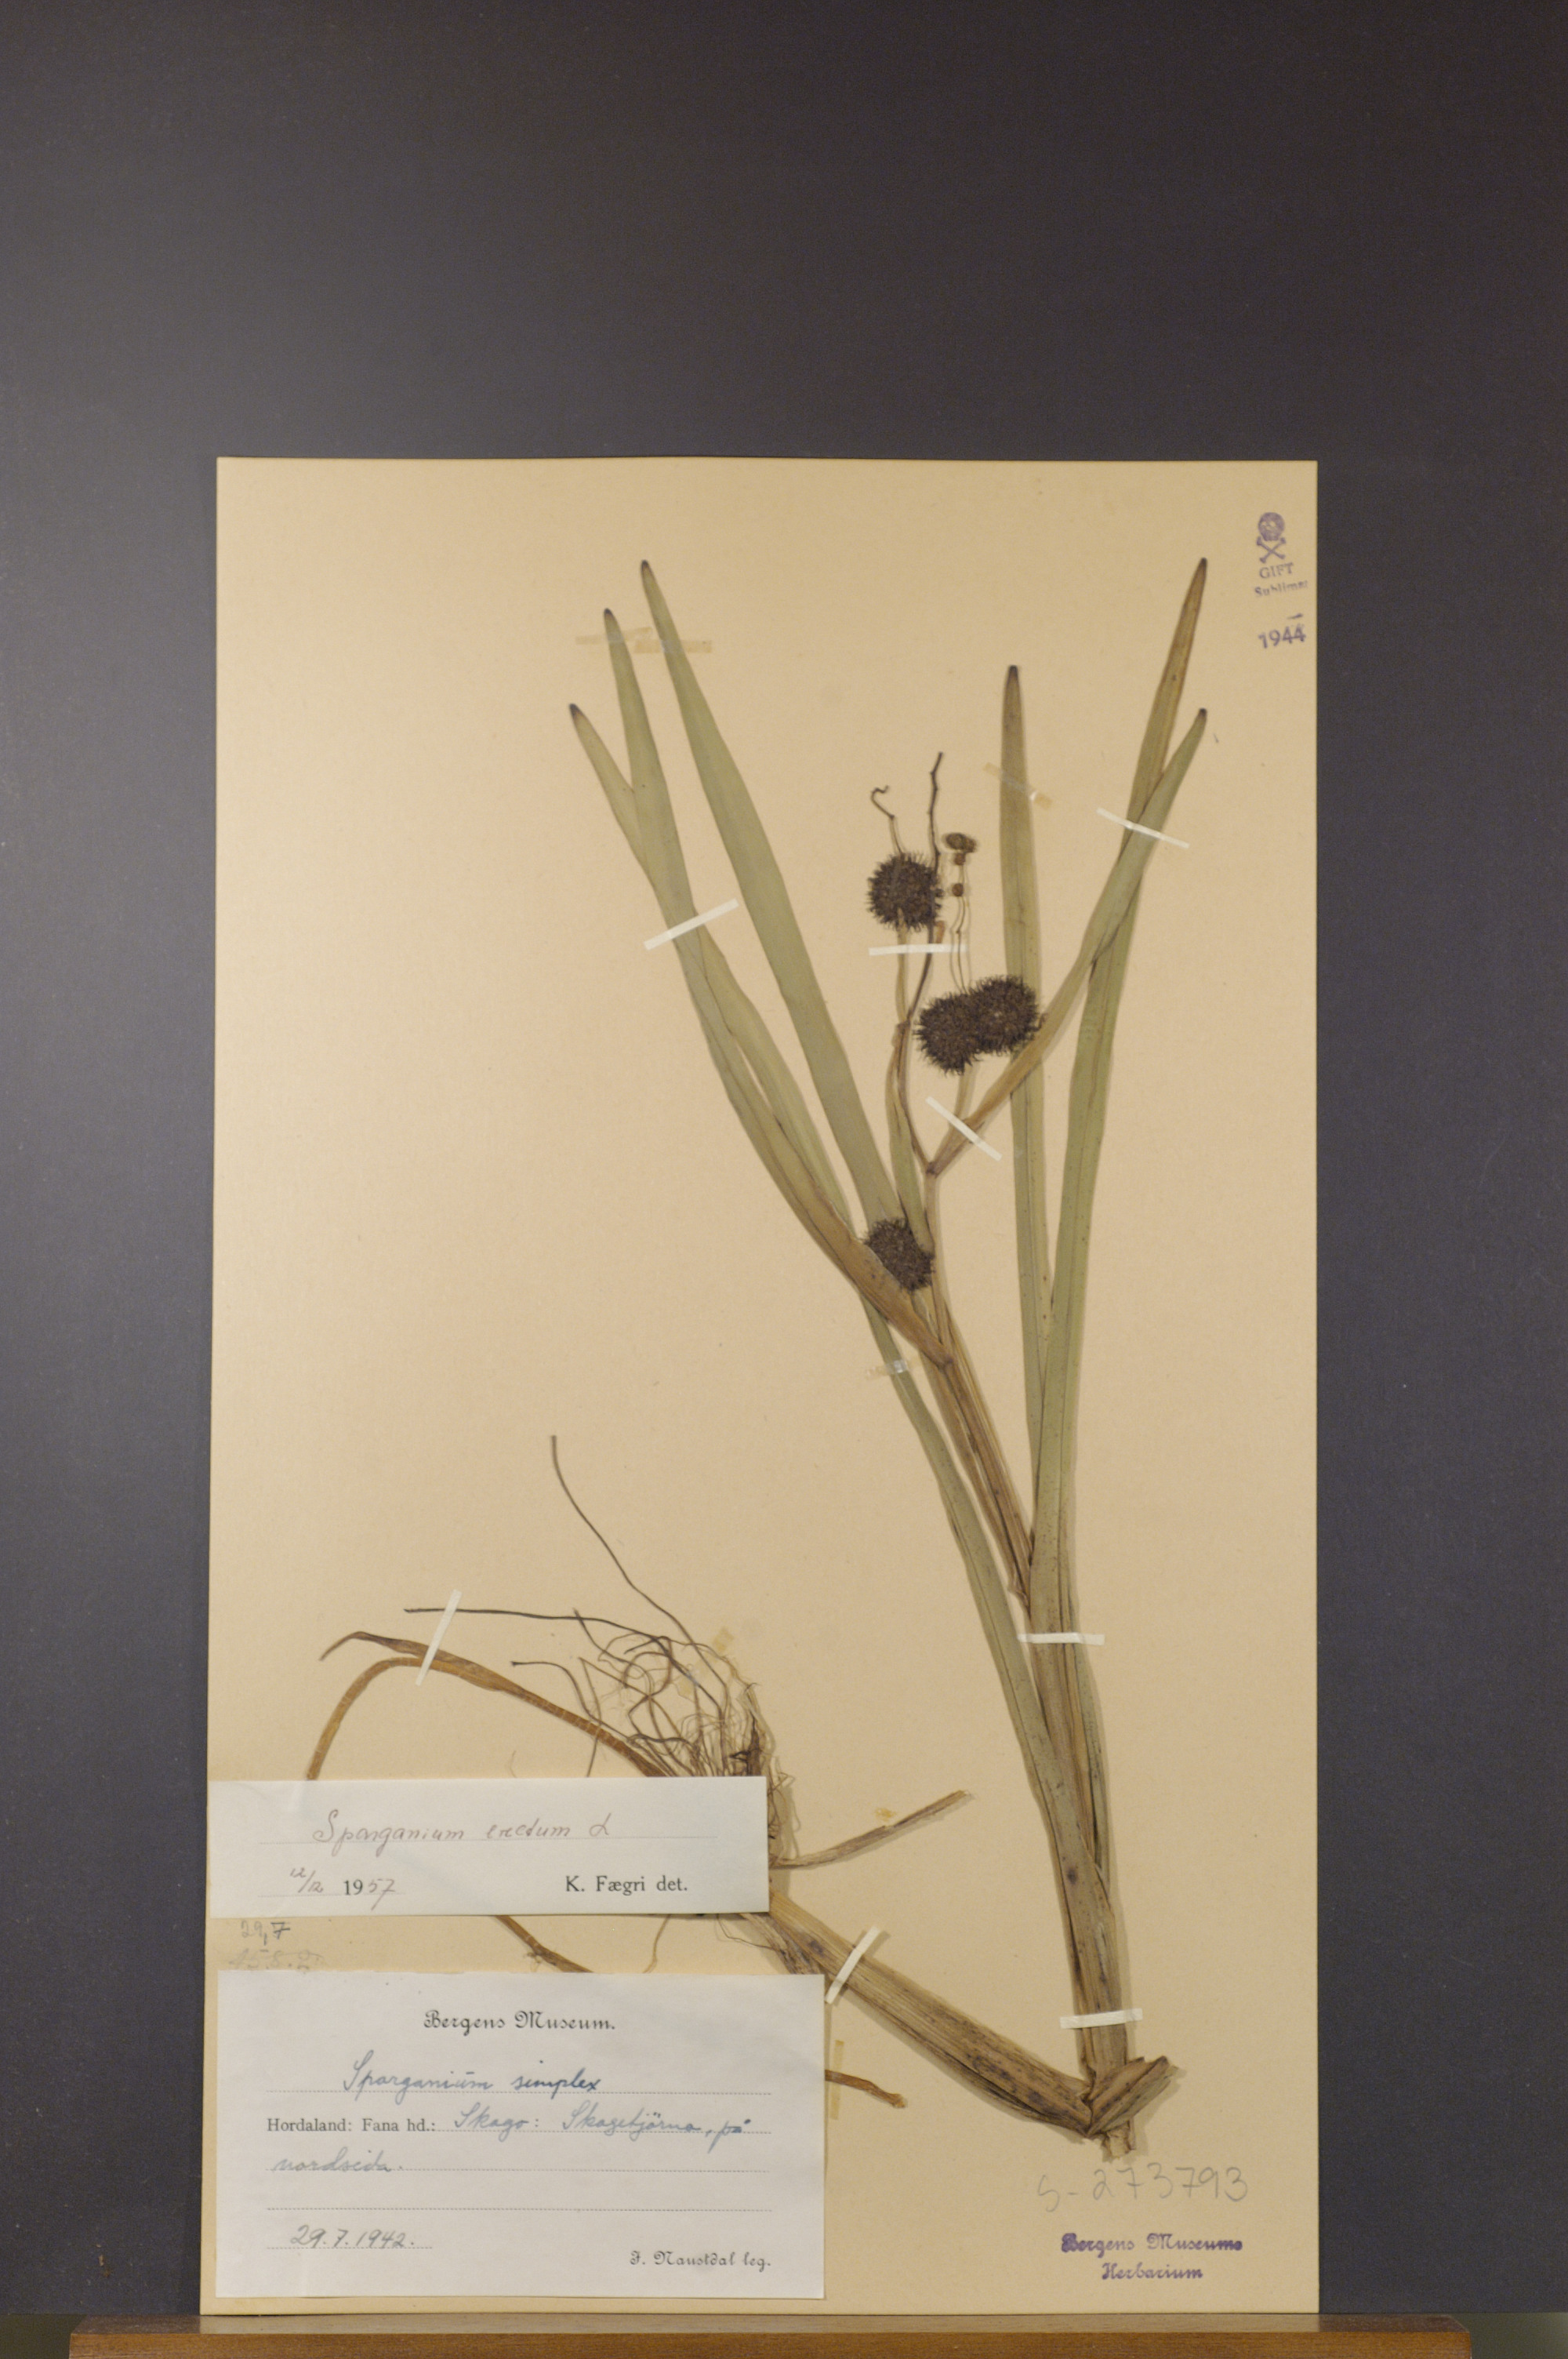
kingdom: Plantae
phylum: Tracheophyta
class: Liliopsida
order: Poales
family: Typhaceae
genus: Sparganium
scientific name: Sparganium erectum
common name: Branched bur-reed
